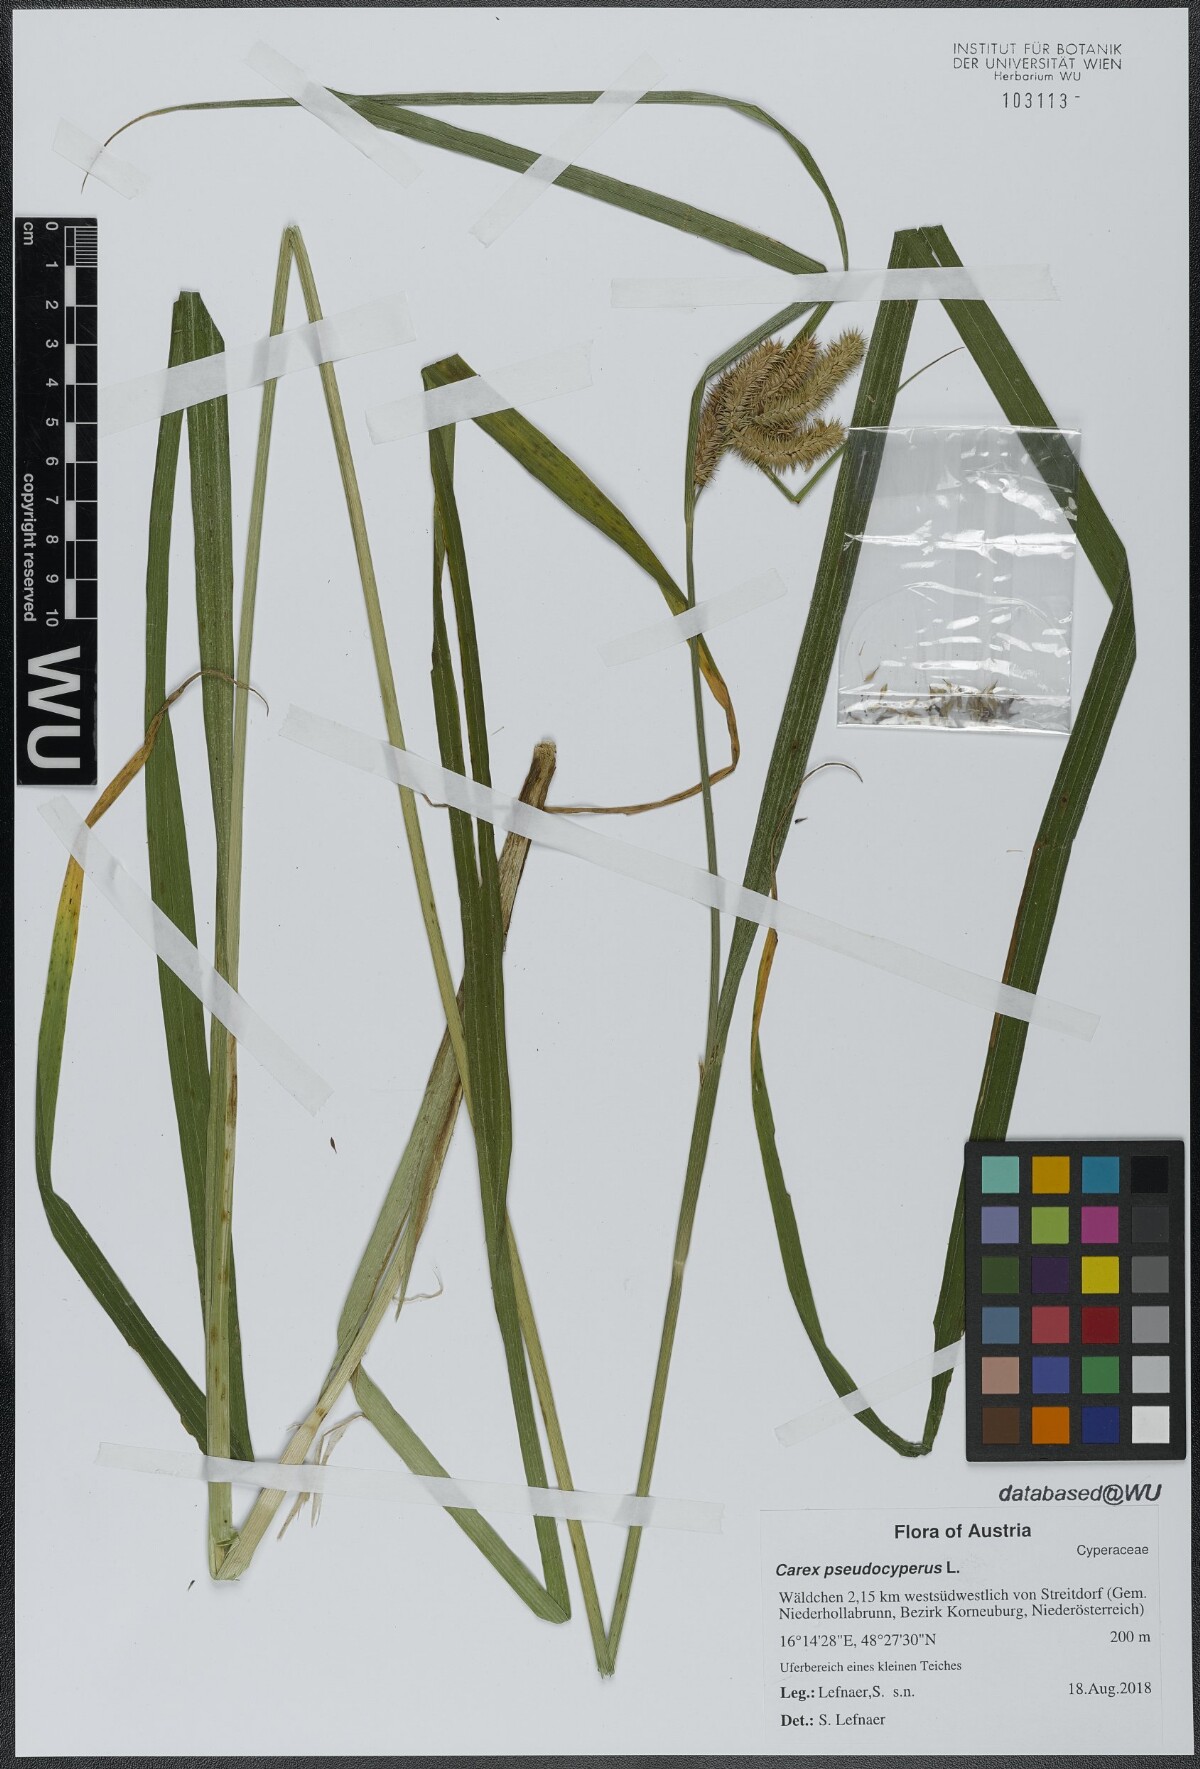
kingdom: Plantae
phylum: Tracheophyta
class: Liliopsida
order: Poales
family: Cyperaceae
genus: Carex
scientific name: Carex pseudocyperus
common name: Cyperus sedge
